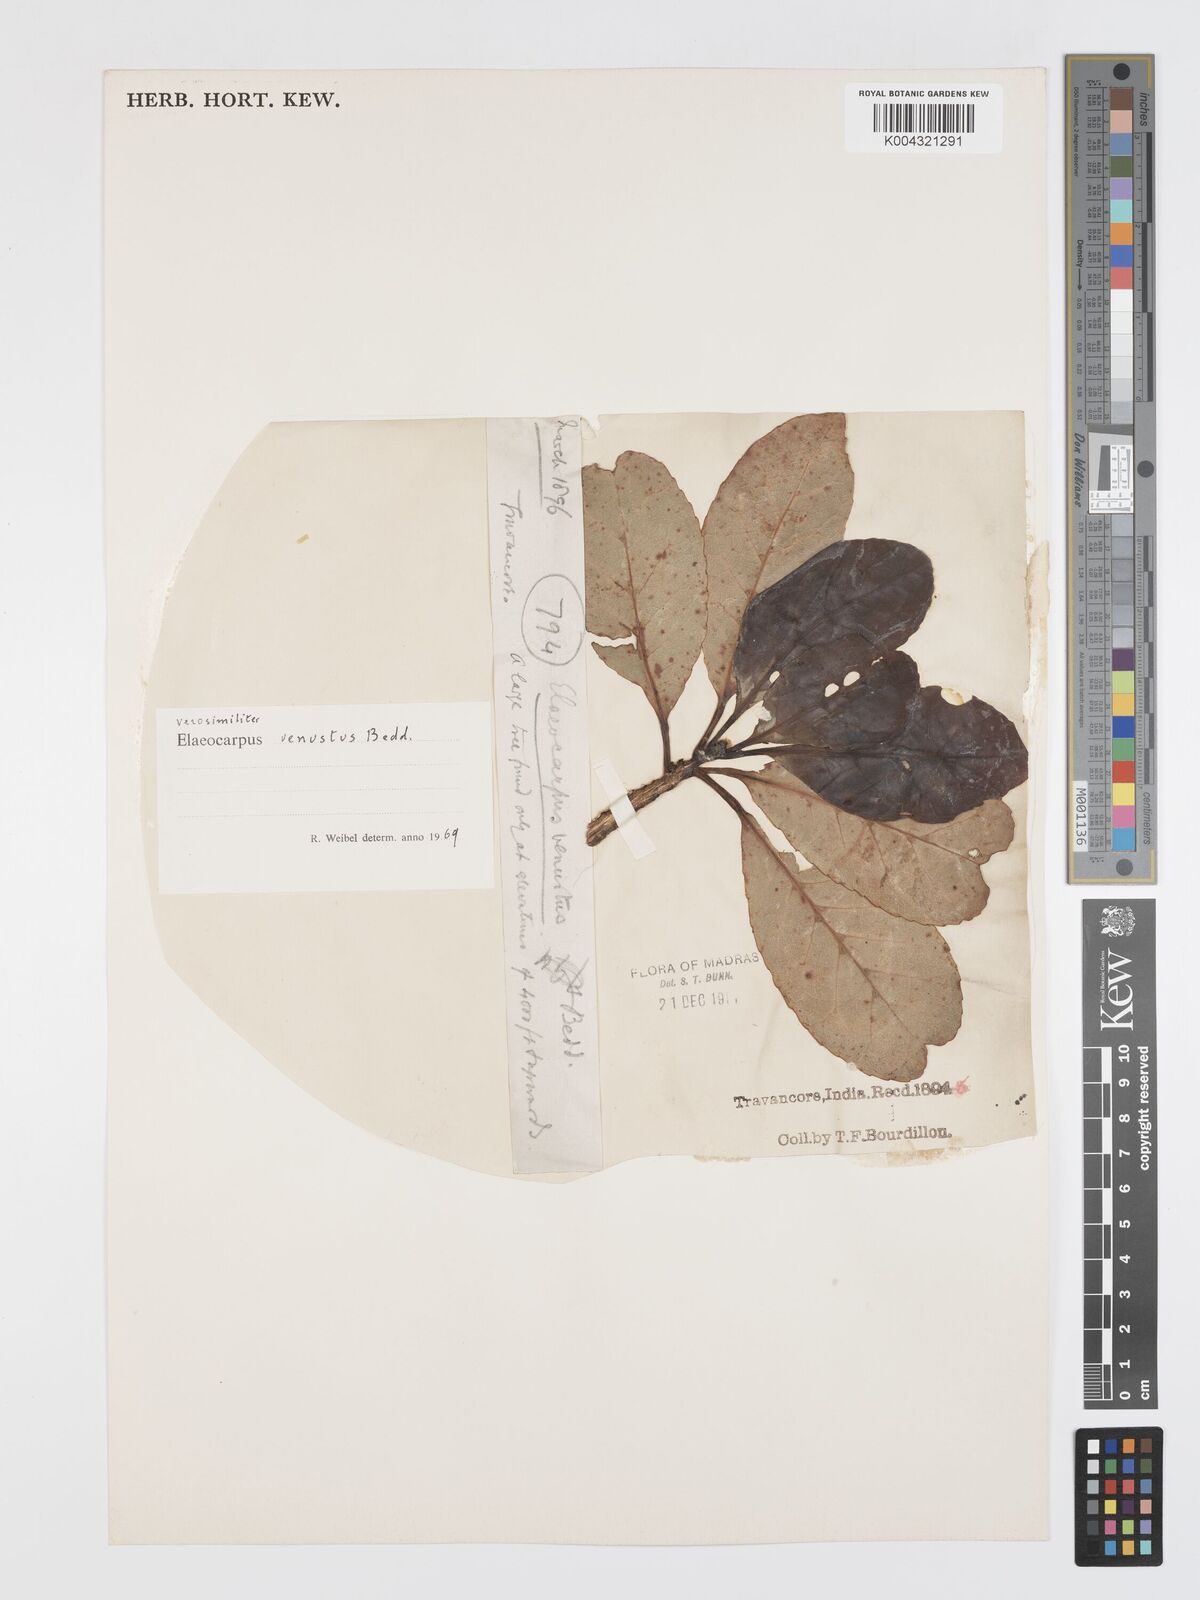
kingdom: Plantae
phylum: Tracheophyta
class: Magnoliopsida
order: Oxalidales
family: Elaeocarpaceae
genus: Elaeocarpus
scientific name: Elaeocarpus venustus
